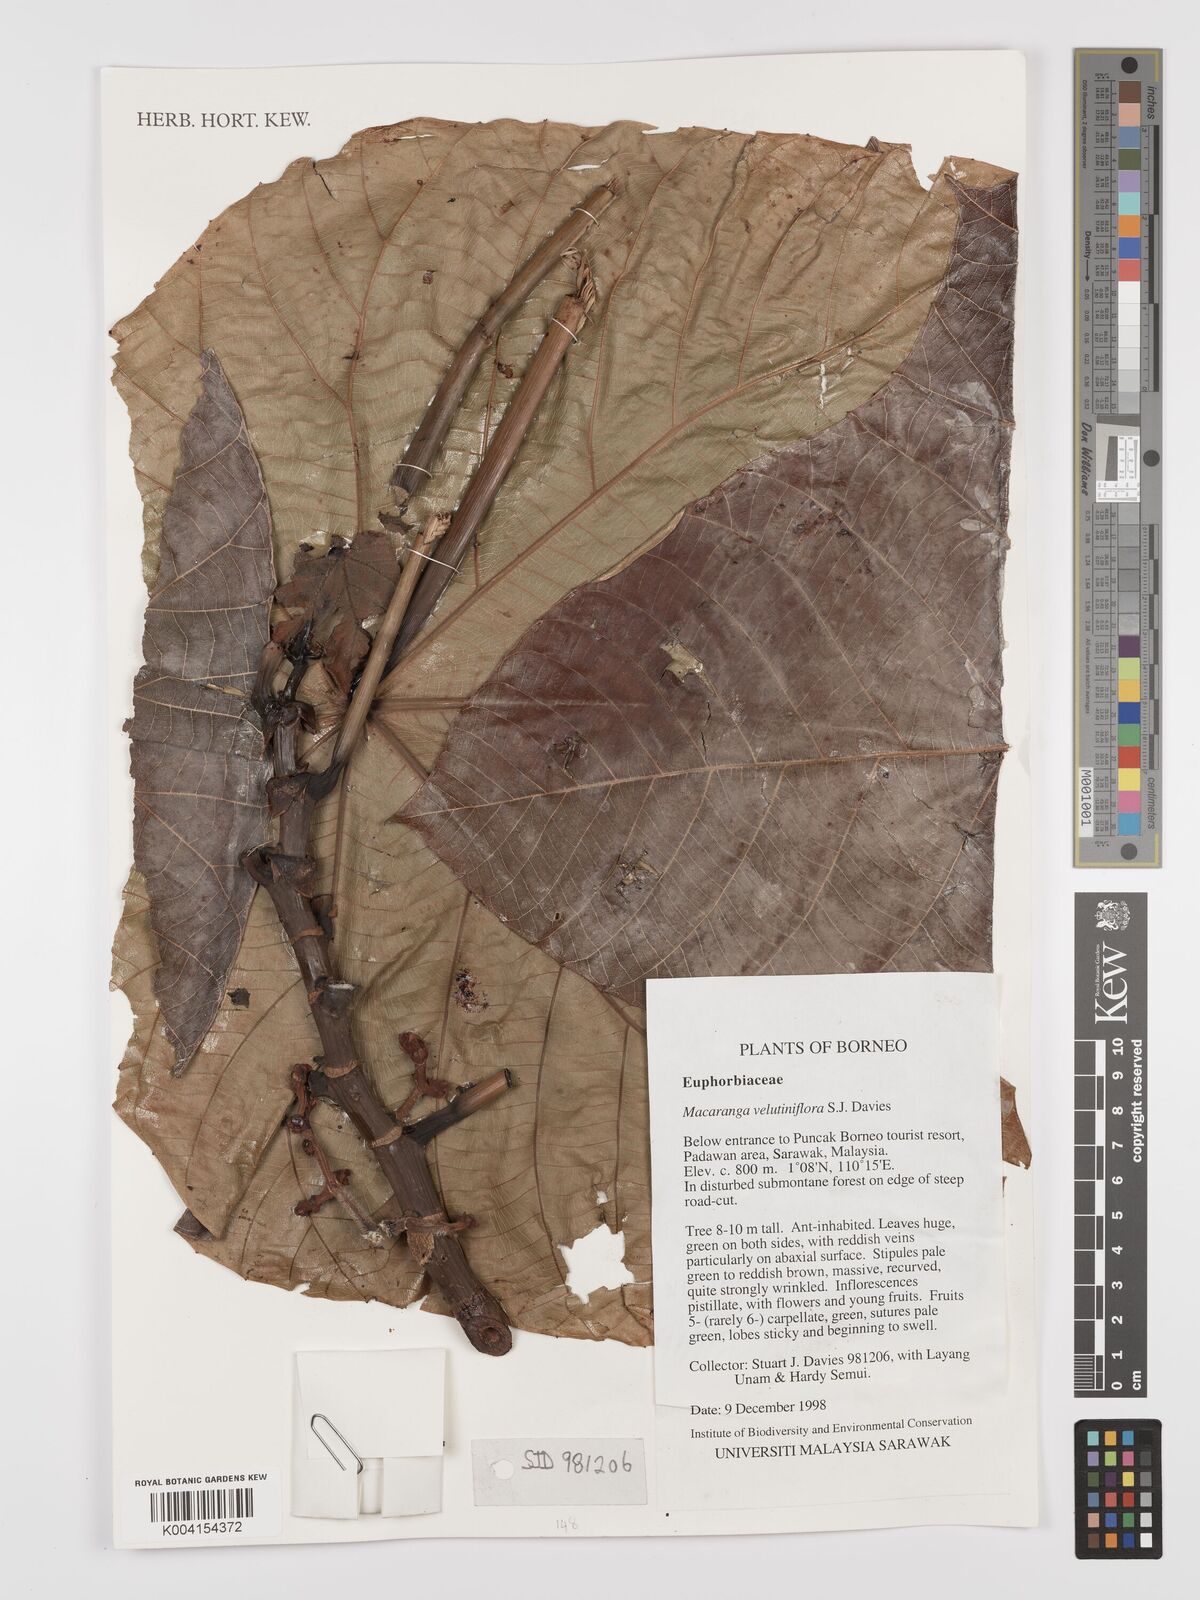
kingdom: Plantae
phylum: Tracheophyta
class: Magnoliopsida
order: Malpighiales
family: Euphorbiaceae
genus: Macaranga
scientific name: Macaranga velutiniflora
